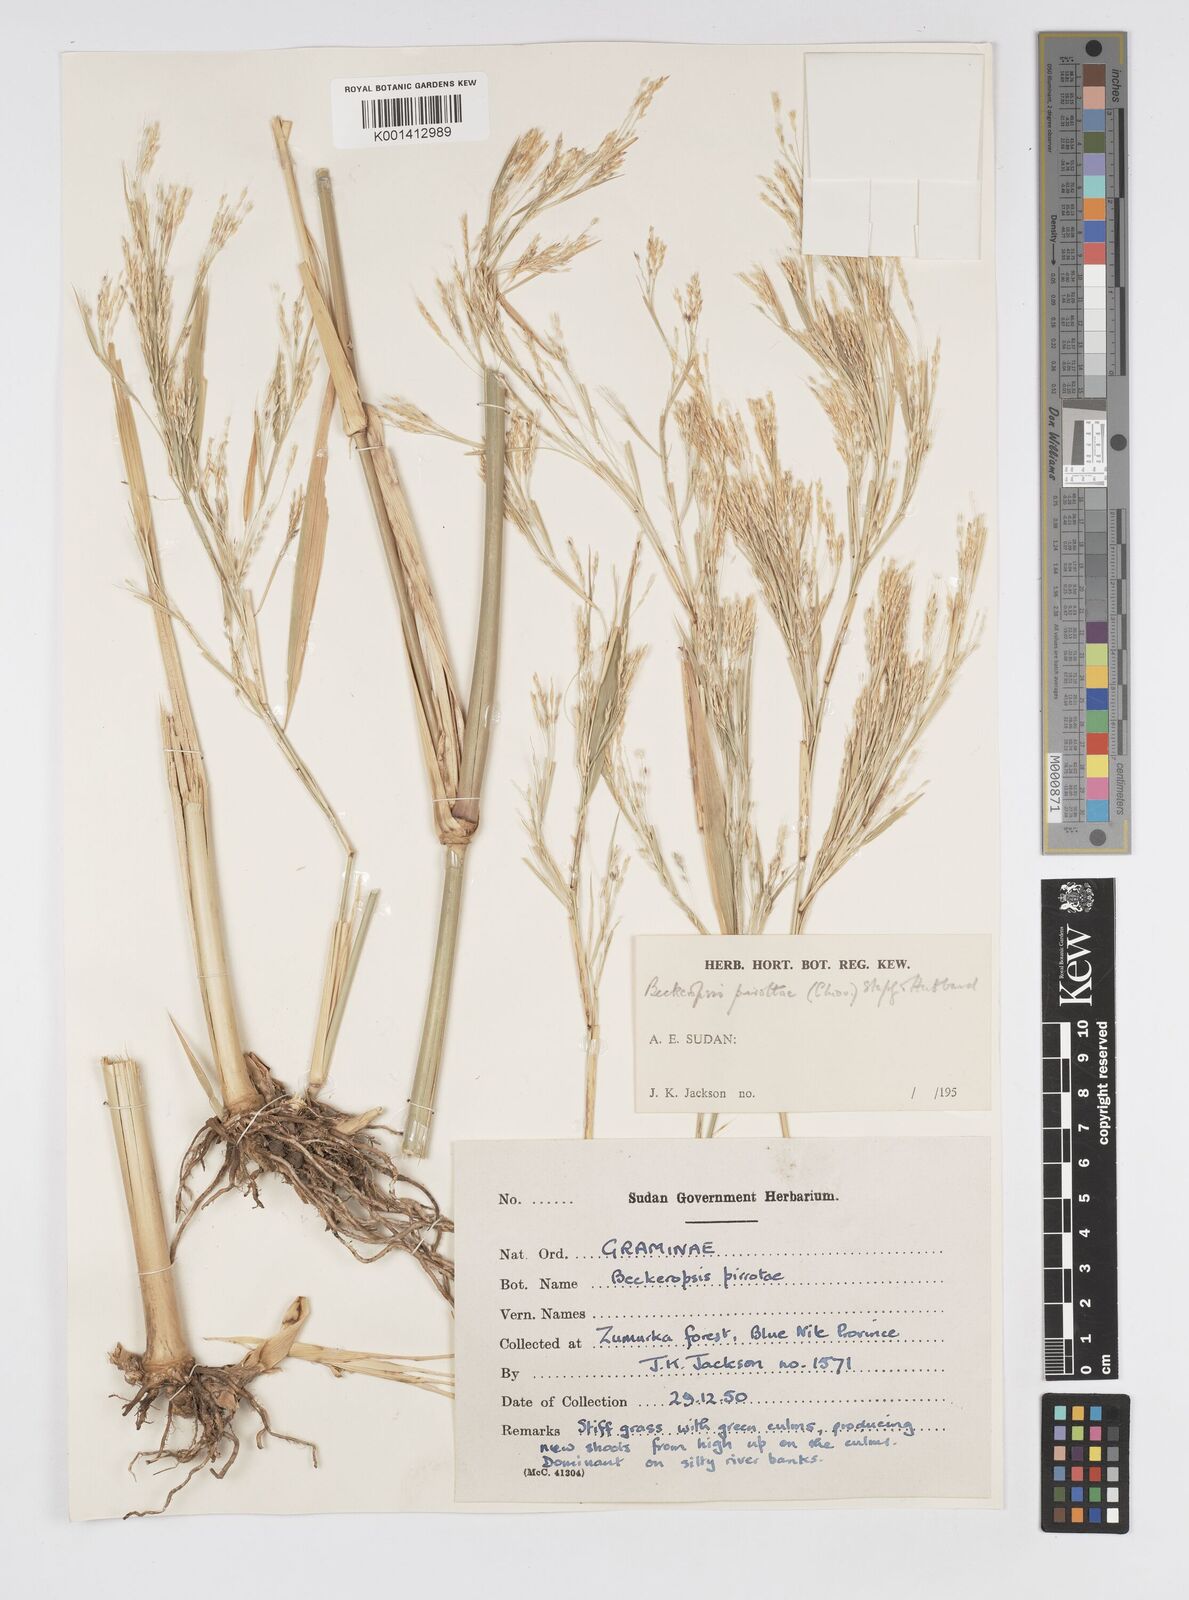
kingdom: Plantae
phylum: Tracheophyta
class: Liliopsida
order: Poales
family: Poaceae
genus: Cenchrus
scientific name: Cenchrus pirottae
